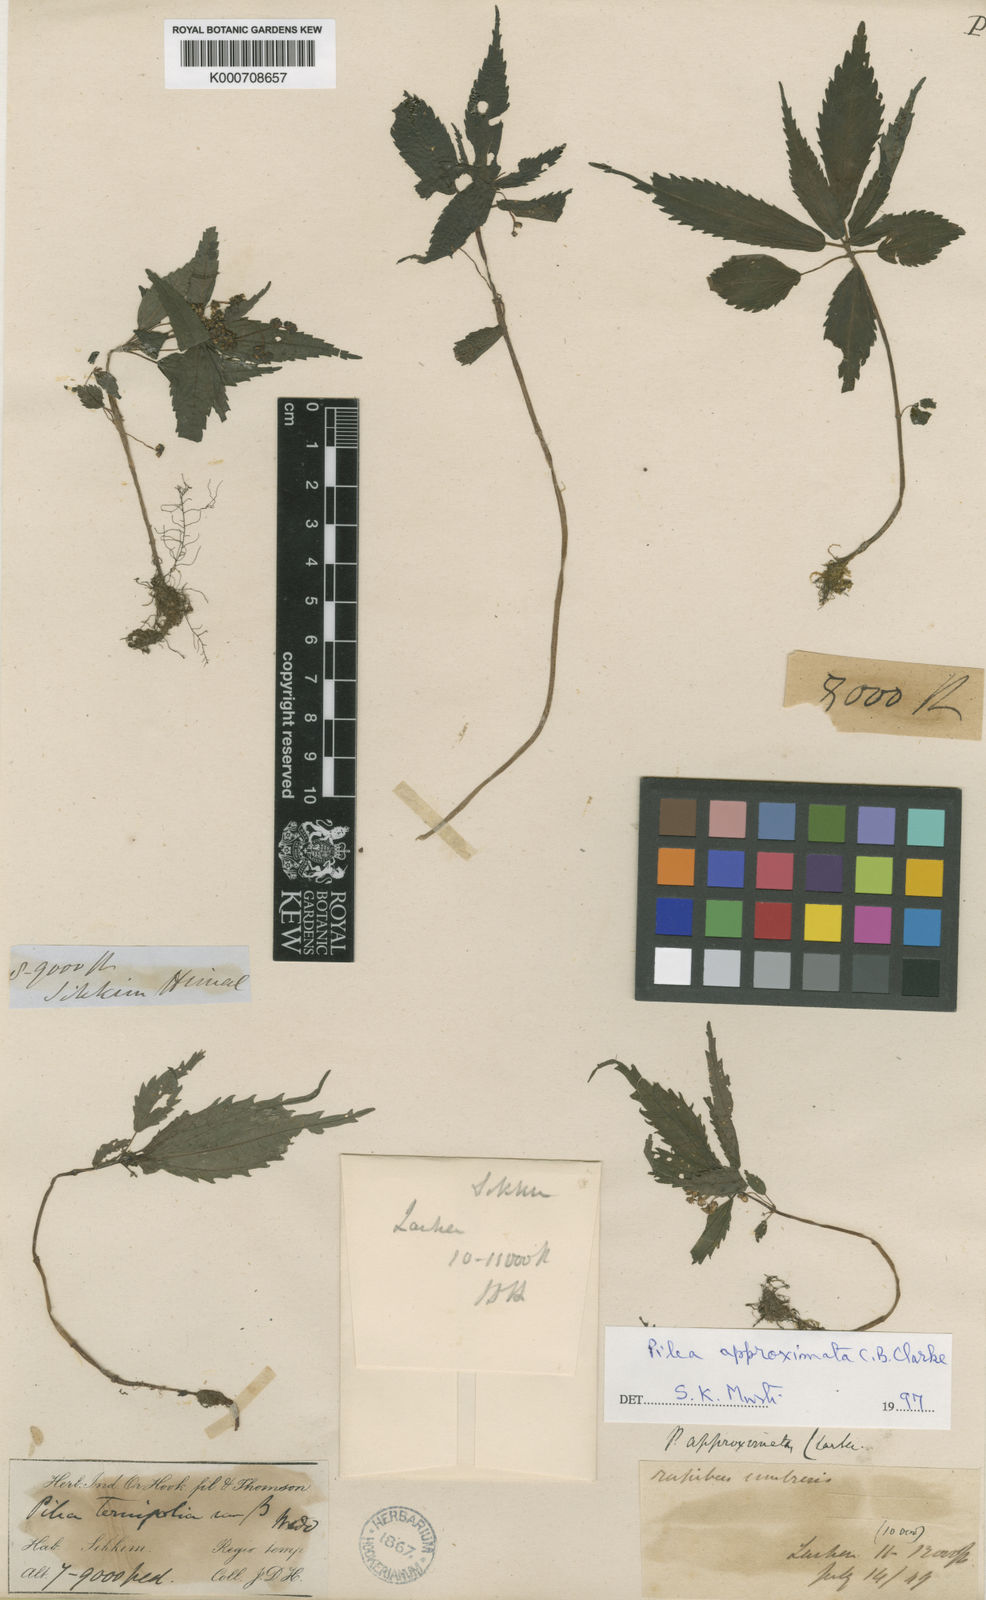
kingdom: Plantae
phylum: Tracheophyta
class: Magnoliopsida
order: Rosales
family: Urticaceae
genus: Pilea
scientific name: Pilea approximata
